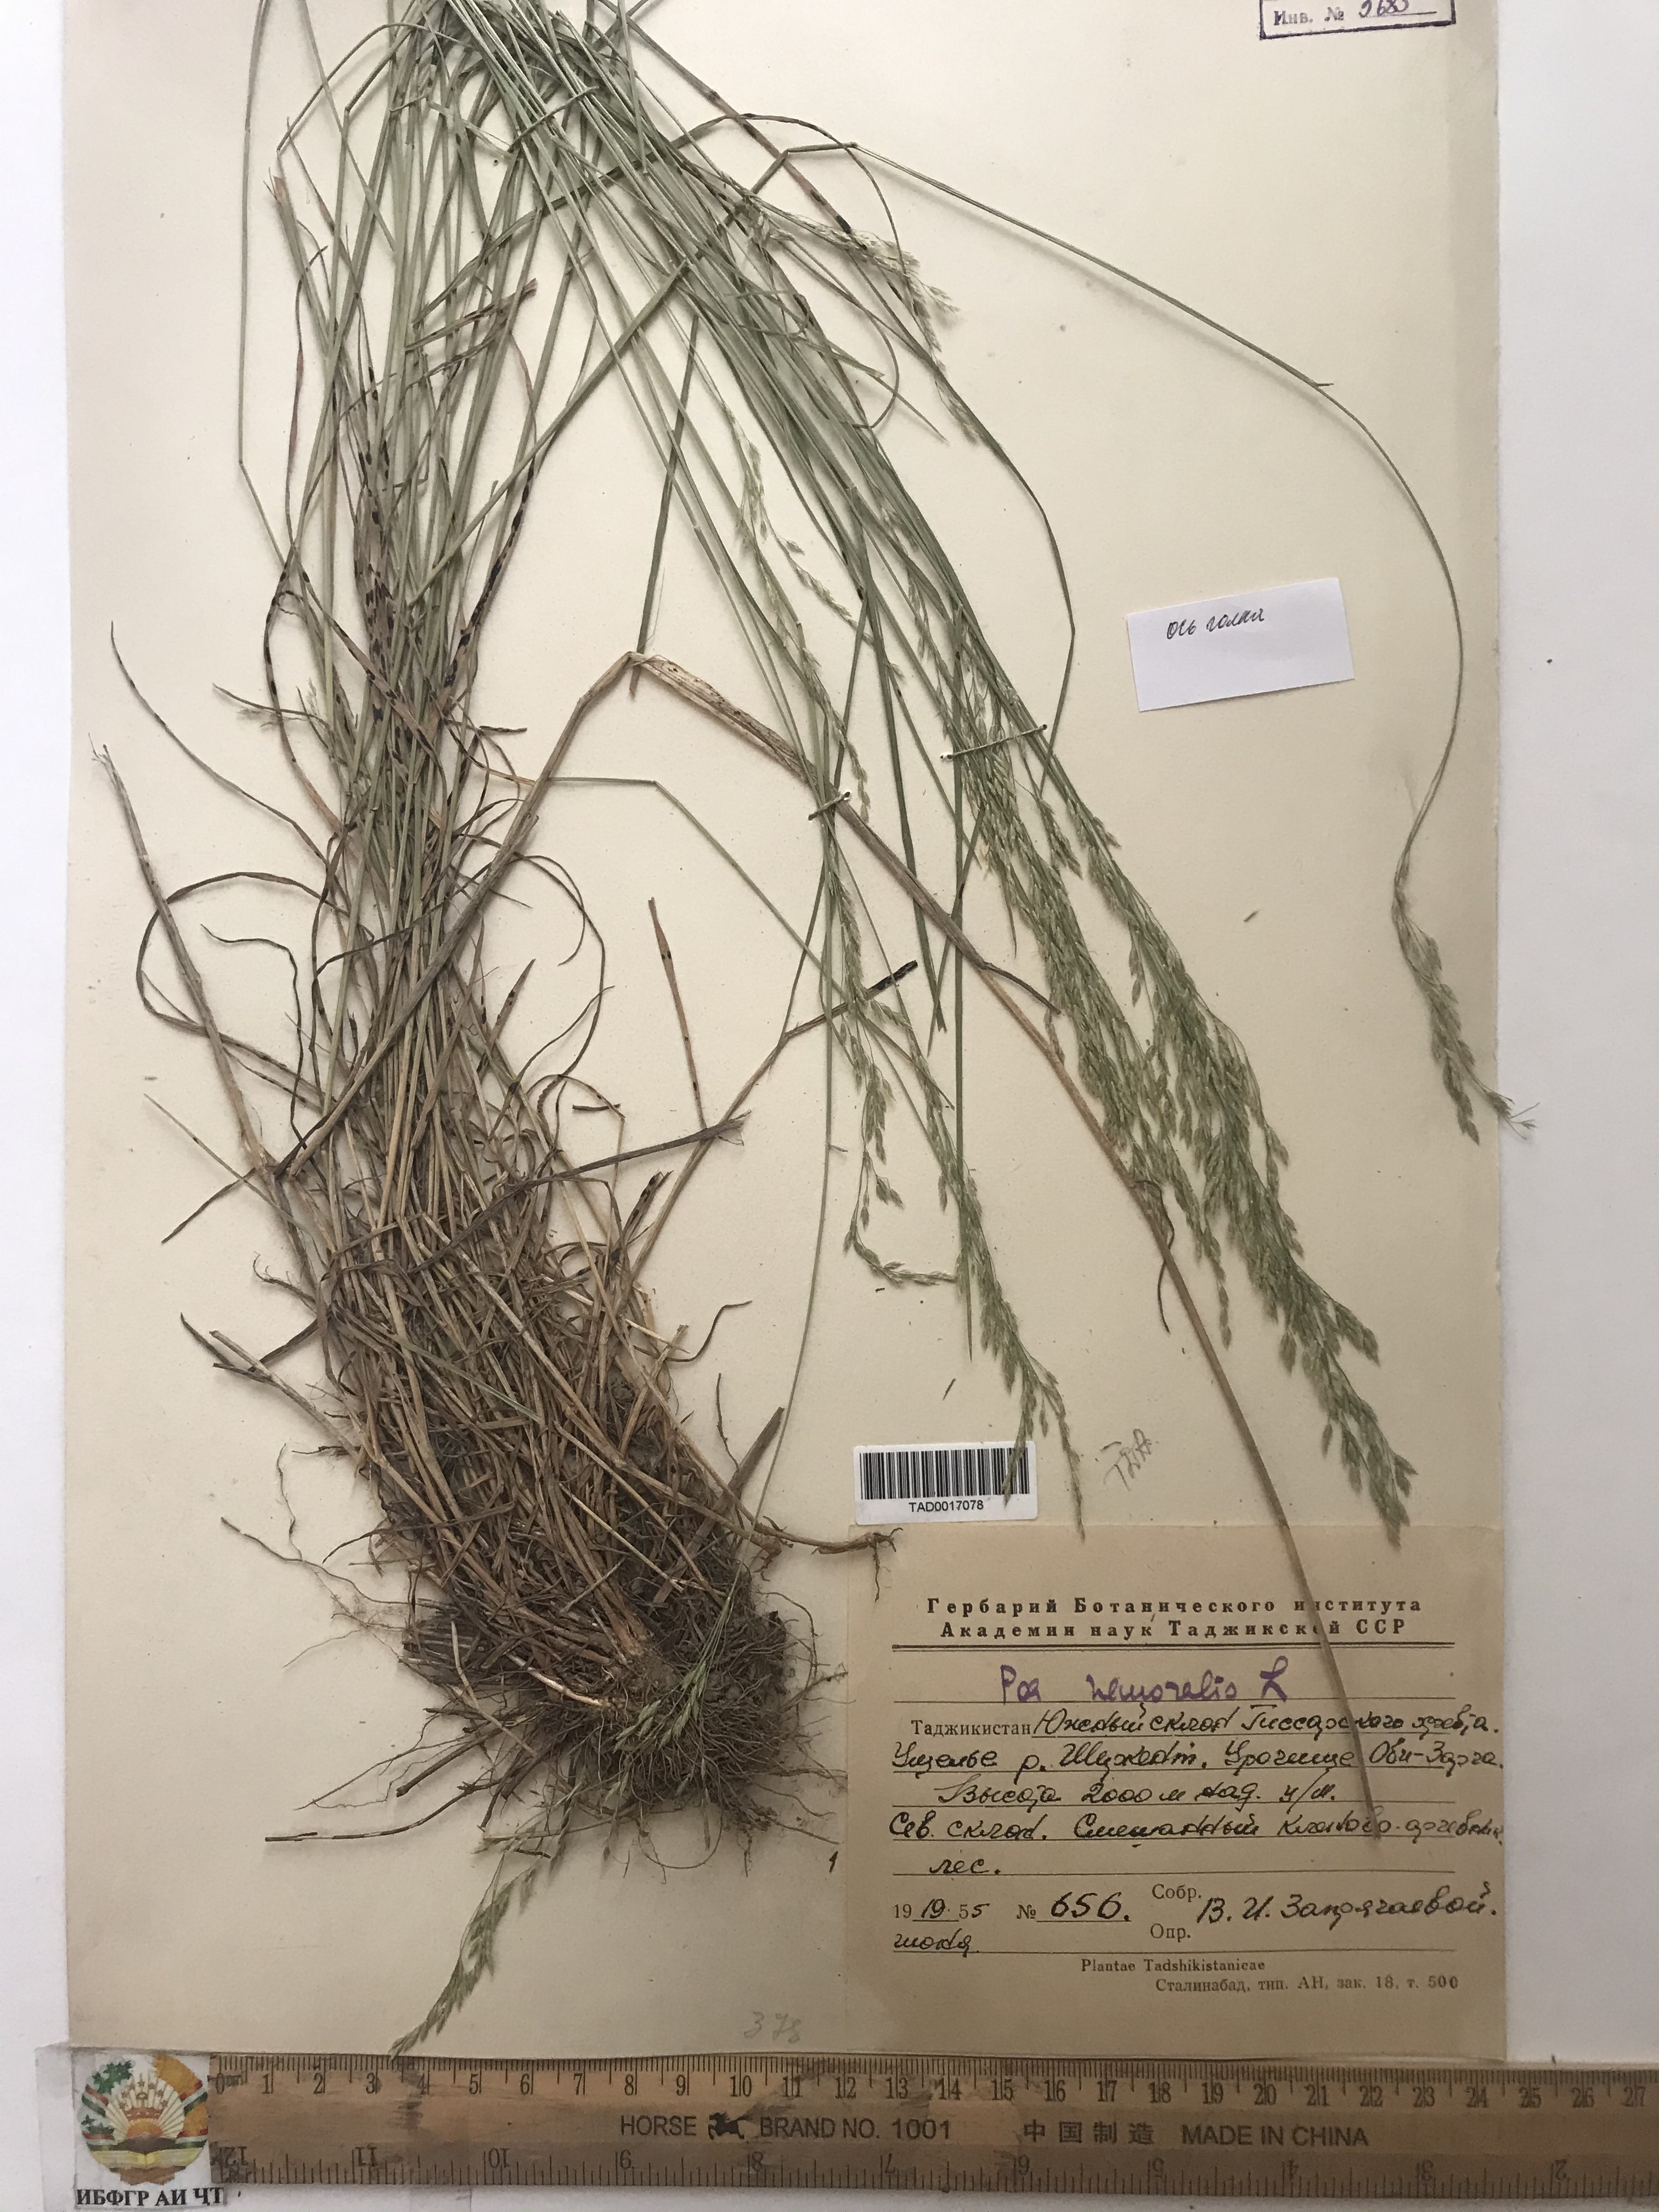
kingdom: Plantae
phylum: Tracheophyta
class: Liliopsida
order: Poales
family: Poaceae
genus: Poa
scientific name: Poa nemoralis
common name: Wood bluegrass
